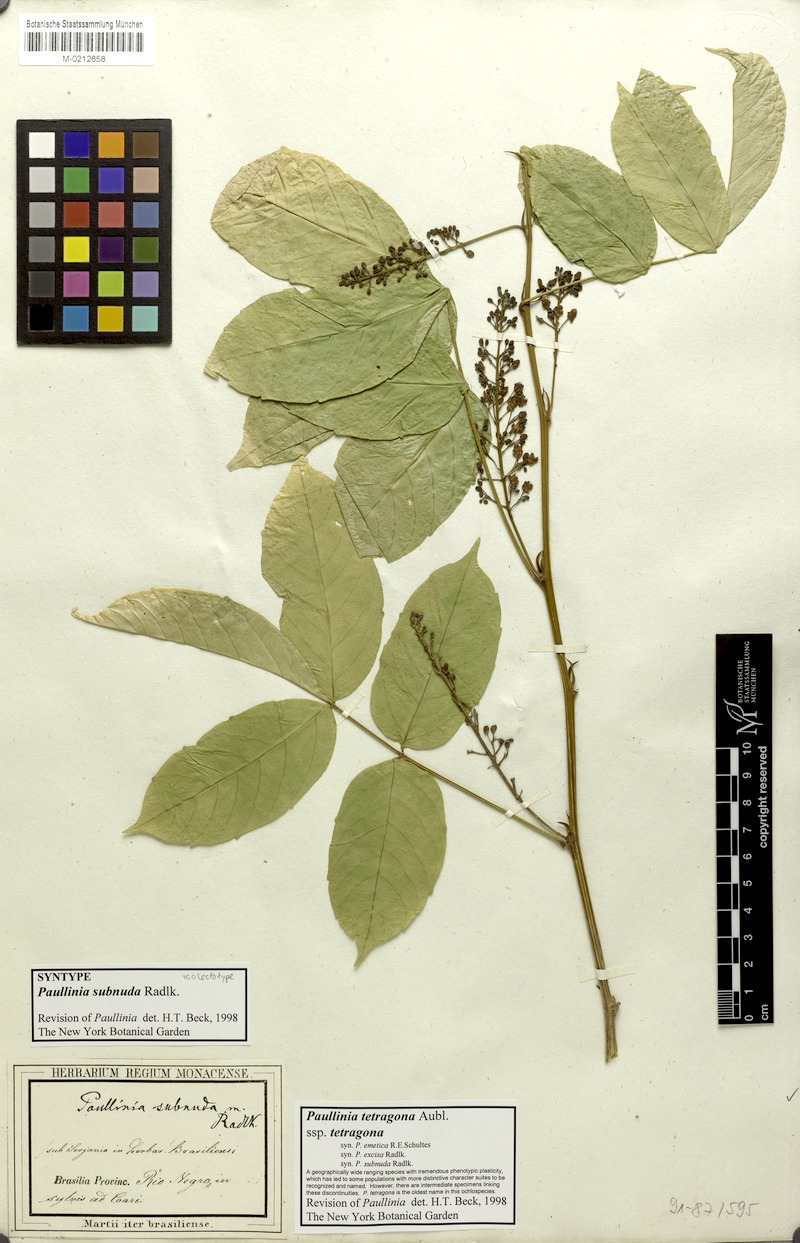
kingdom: Plantae
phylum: Tracheophyta
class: Magnoliopsida
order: Sapindales
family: Sapindaceae
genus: Paullinia
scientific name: Paullinia tetragona
